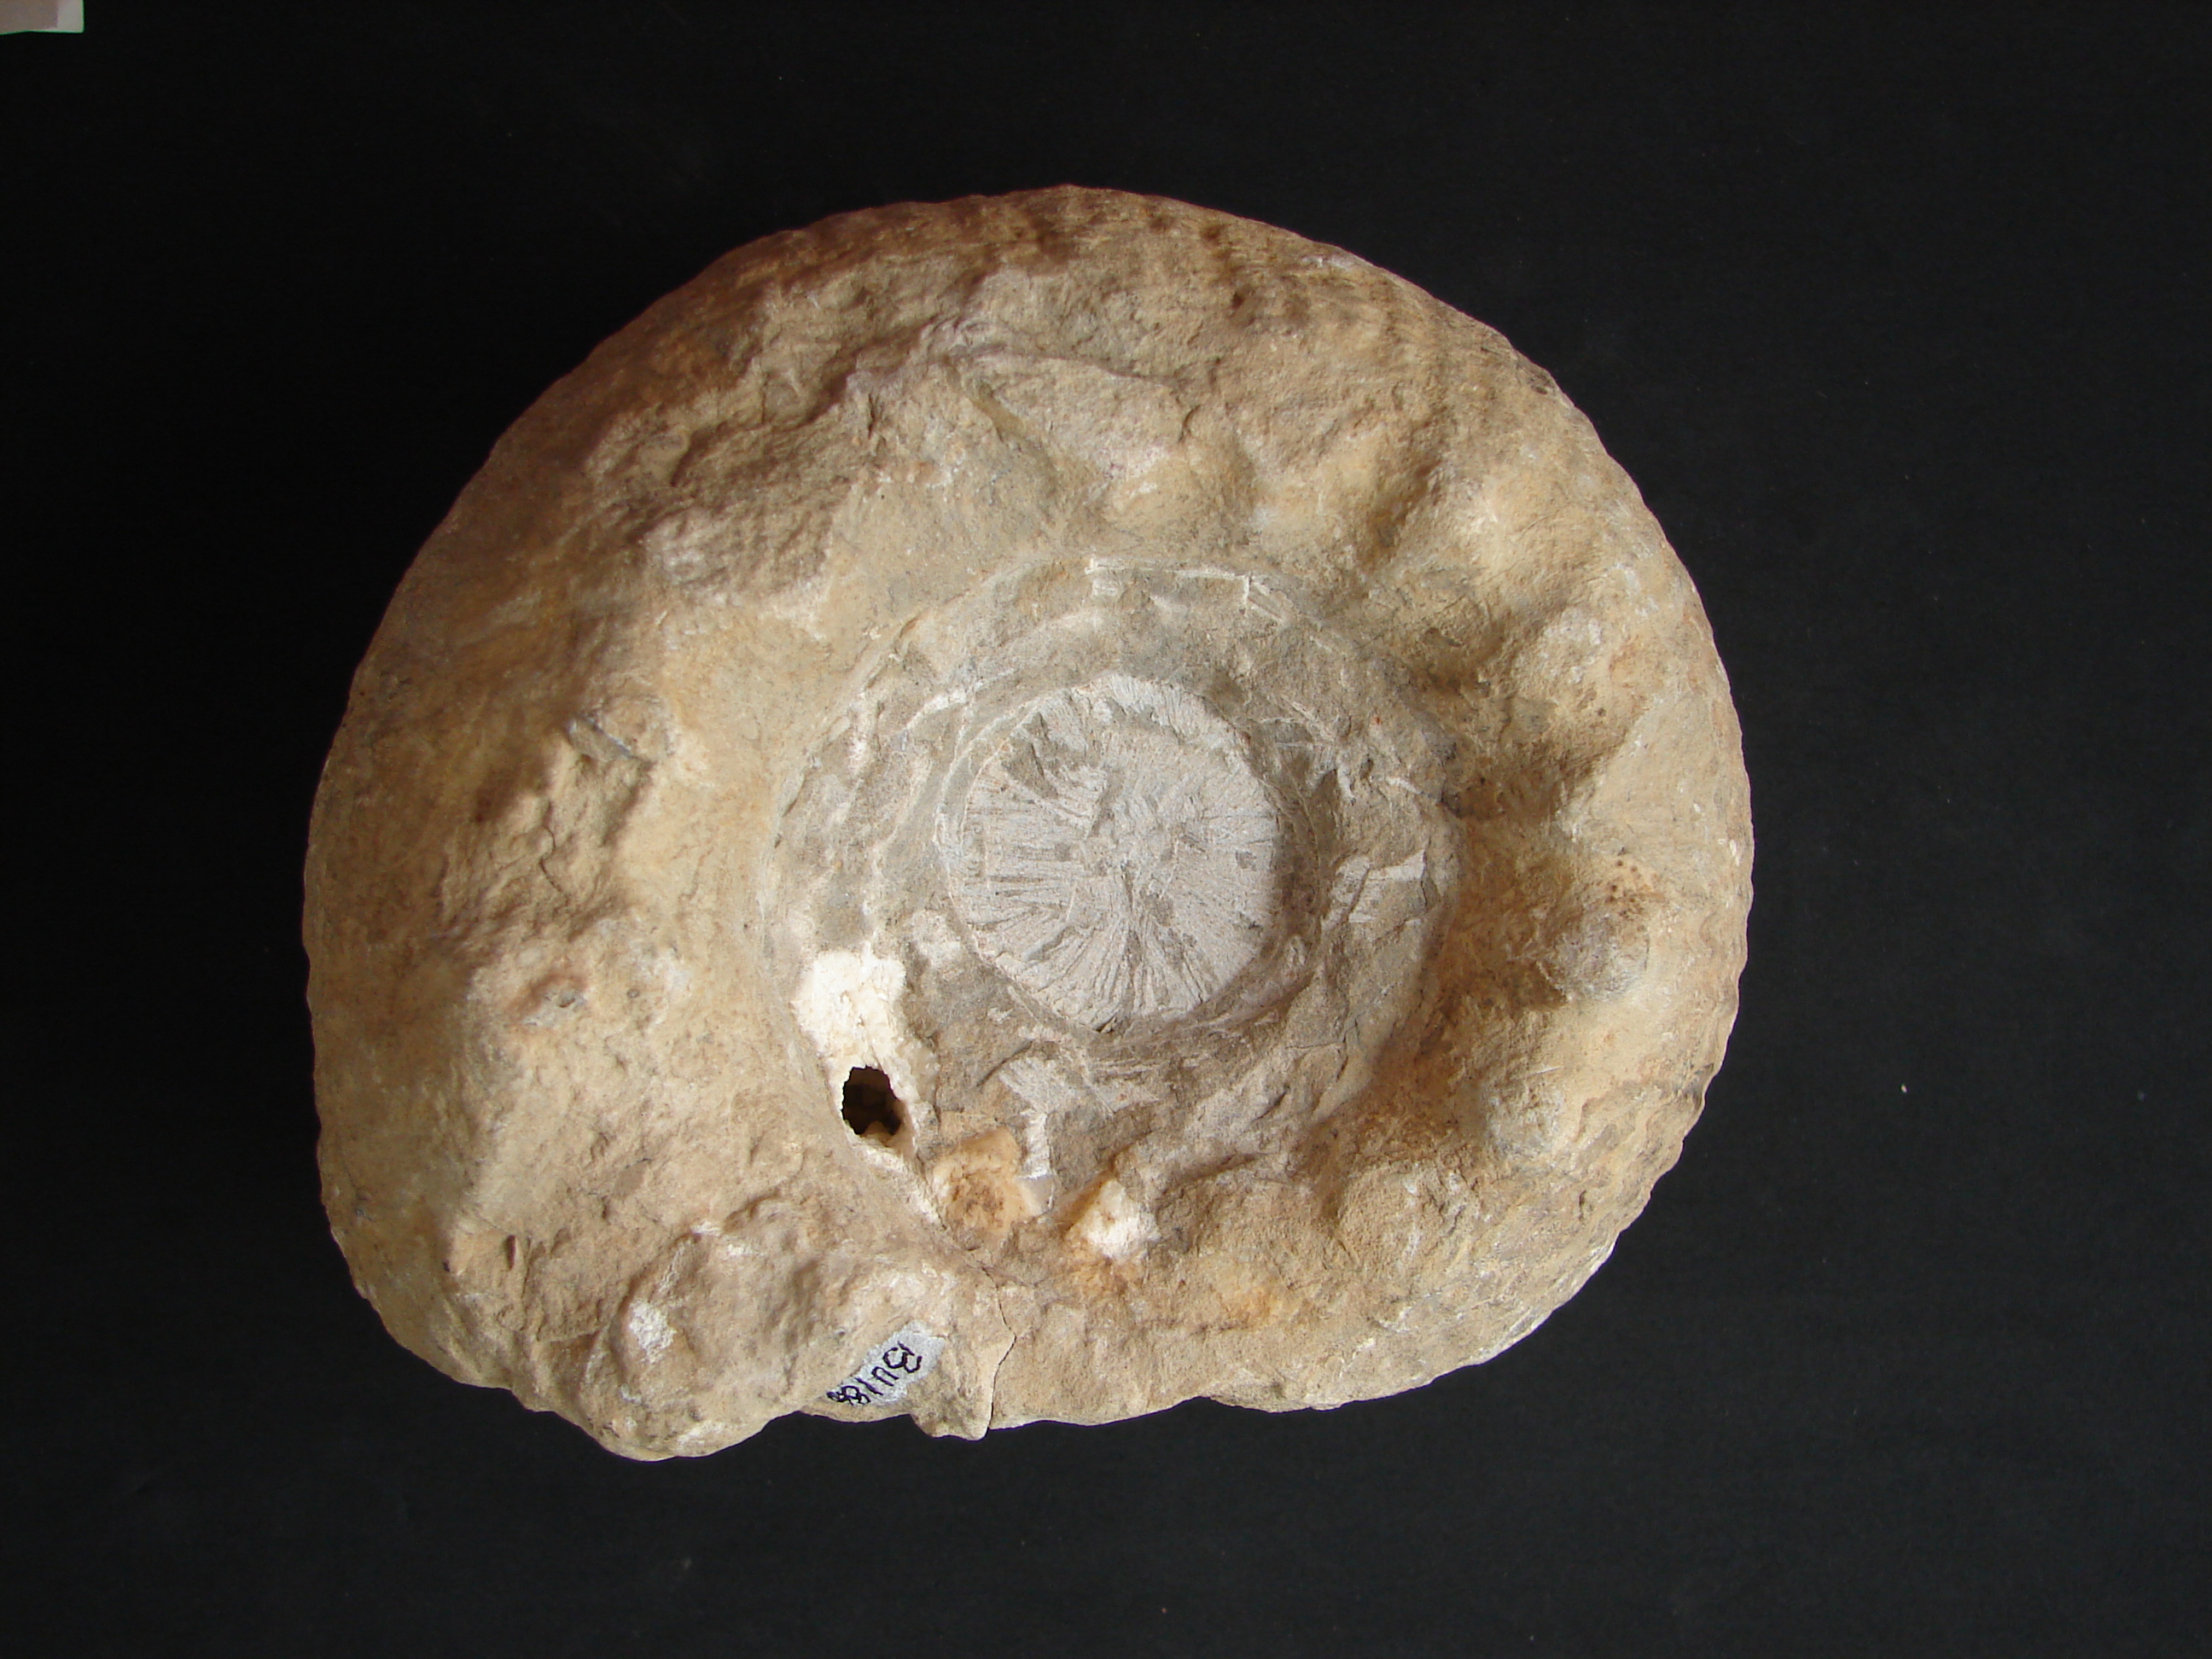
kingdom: Animalia
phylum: Mollusca
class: Cephalopoda
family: Stephanoceratidae
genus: Teloceras
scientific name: Teloceras
